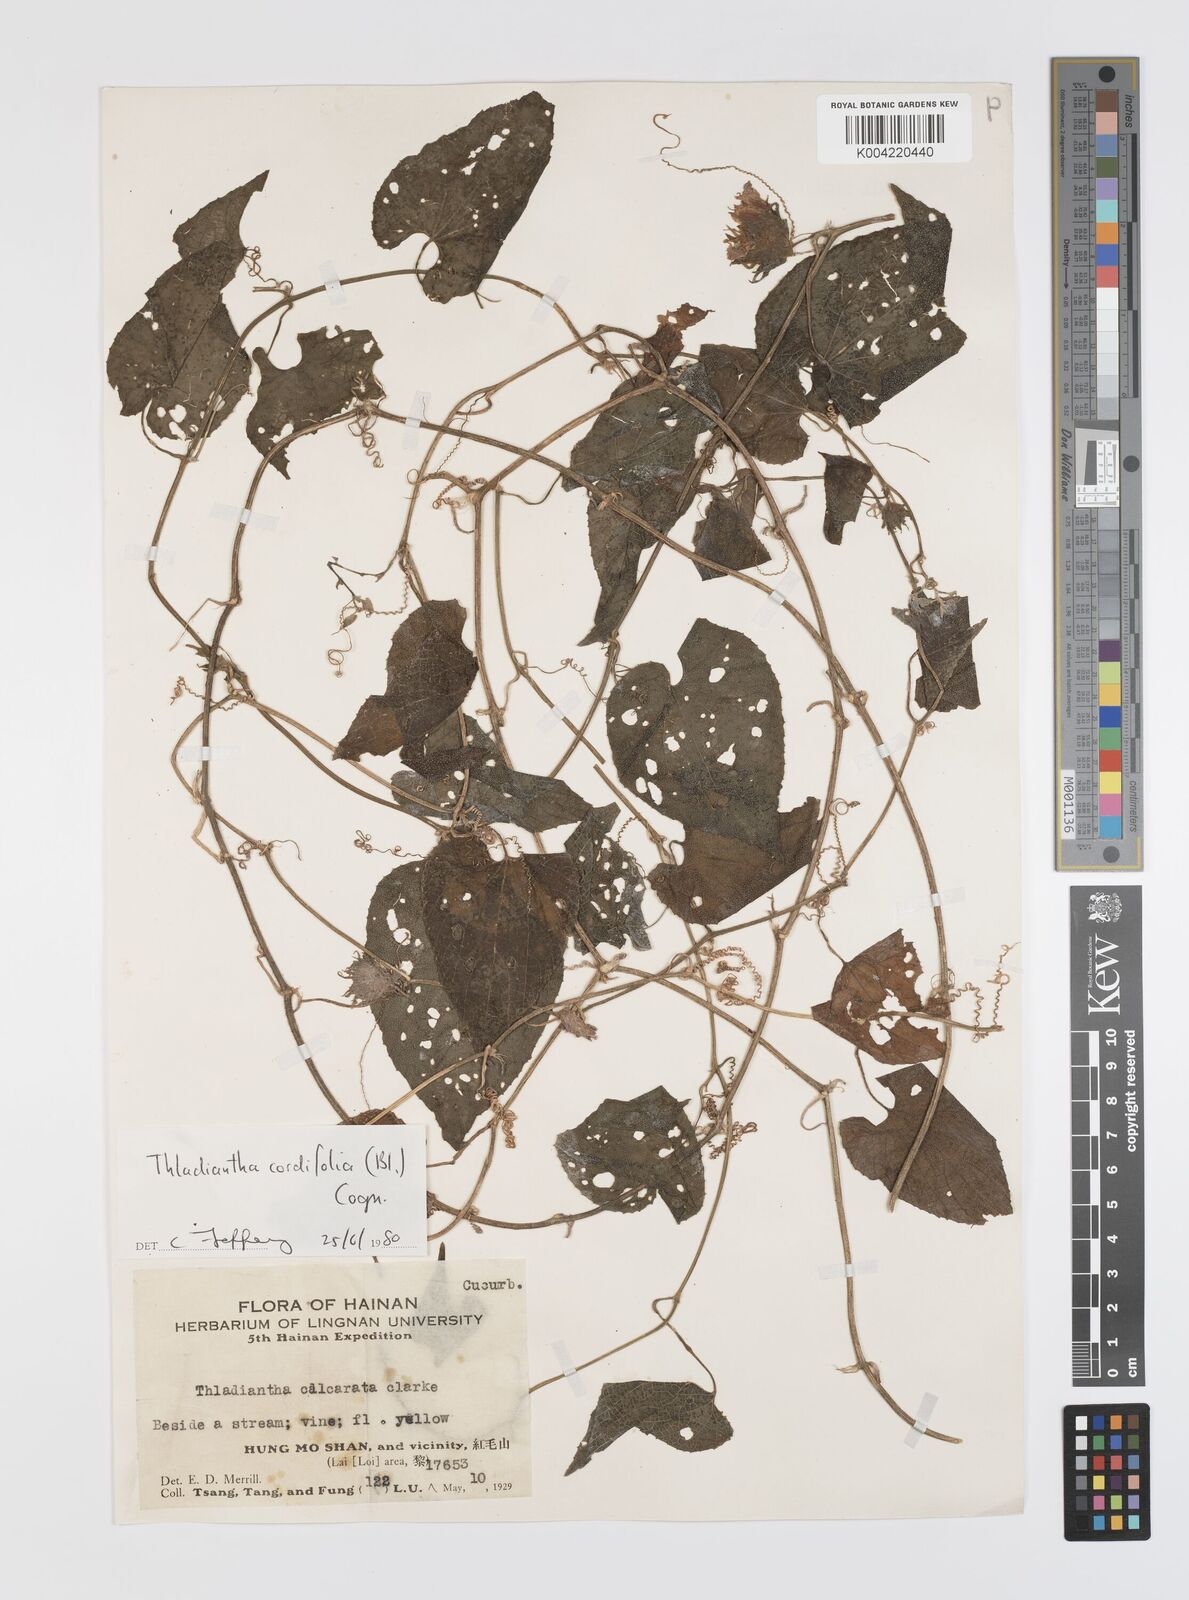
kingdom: Plantae
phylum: Tracheophyta
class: Magnoliopsida
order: Cucurbitales
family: Cucurbitaceae
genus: Thladiantha
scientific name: Thladiantha cordifolia
